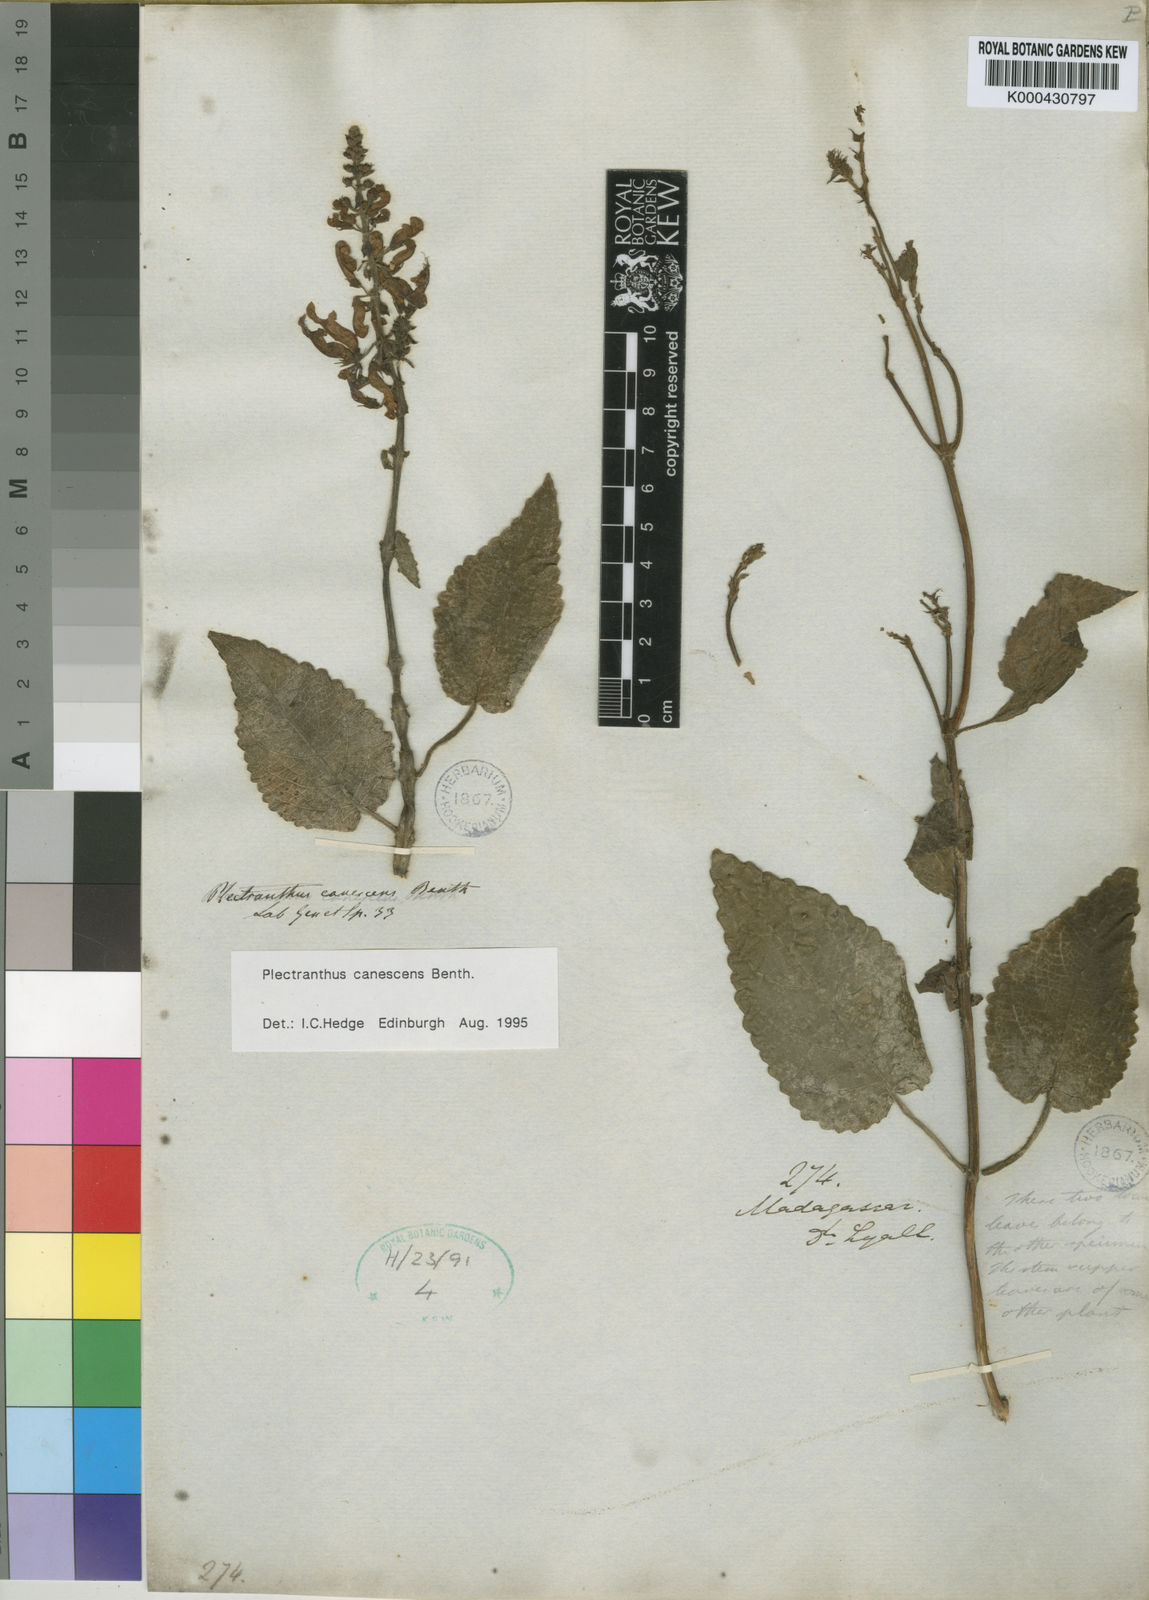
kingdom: Plantae
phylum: Tracheophyta
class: Magnoliopsida
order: Lamiales
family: Lamiaceae
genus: Plectranthus
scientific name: Plectranthus canescens
